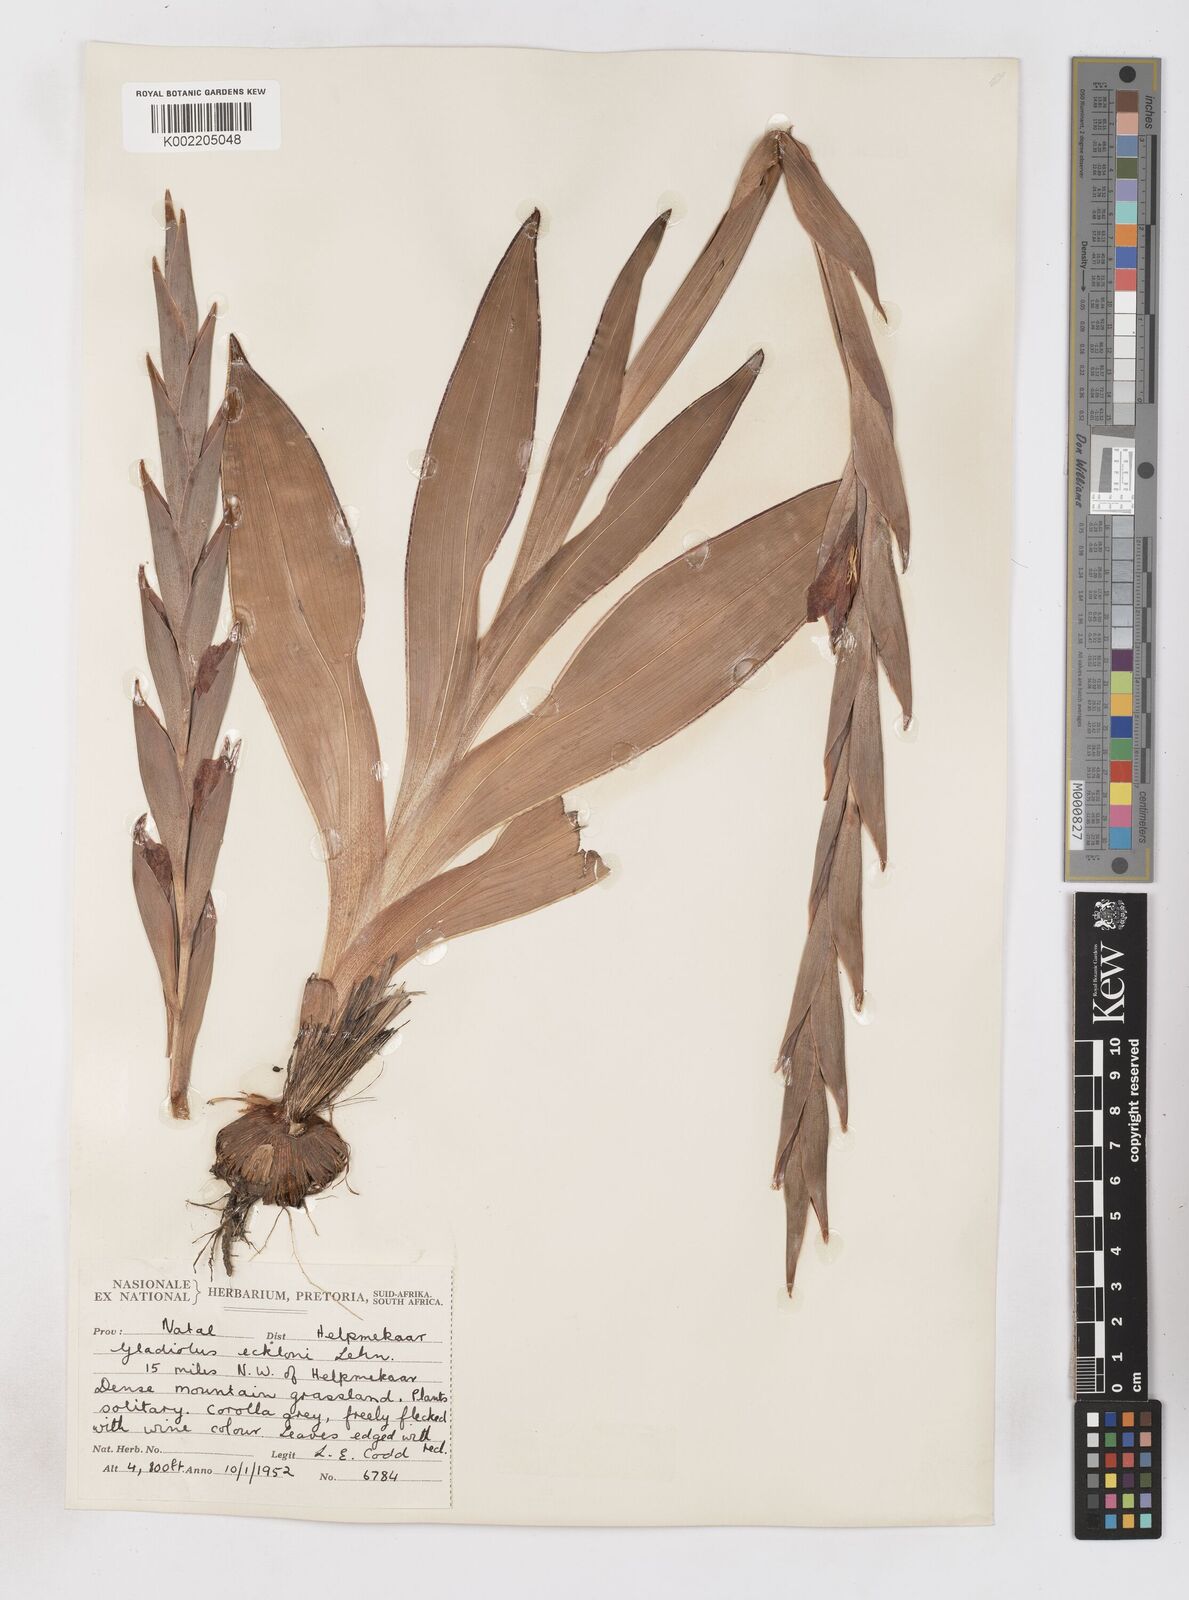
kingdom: Plantae
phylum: Tracheophyta
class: Liliopsida
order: Asparagales
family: Iridaceae
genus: Gladiolus
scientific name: Gladiolus ecklonii
